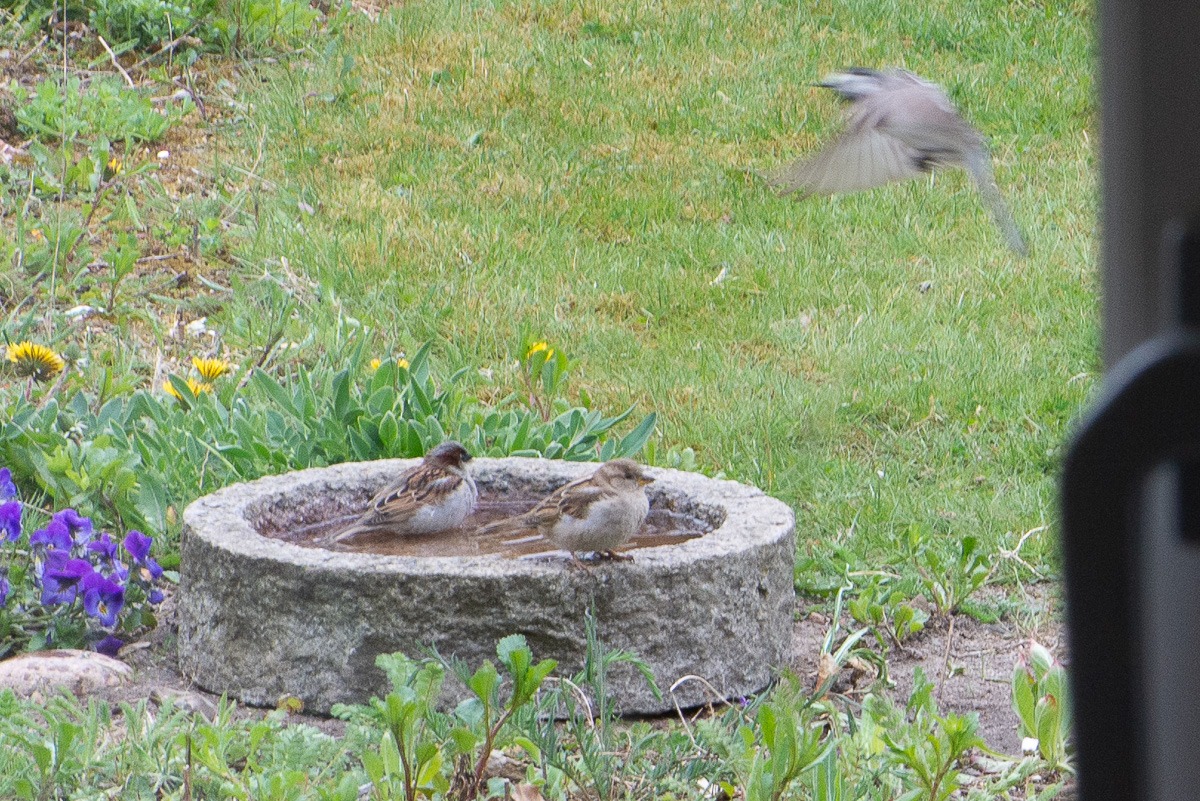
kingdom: Animalia
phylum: Chordata
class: Aves
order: Passeriformes
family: Motacillidae
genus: Motacilla
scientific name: Motacilla alba
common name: Hvid vipstjert
